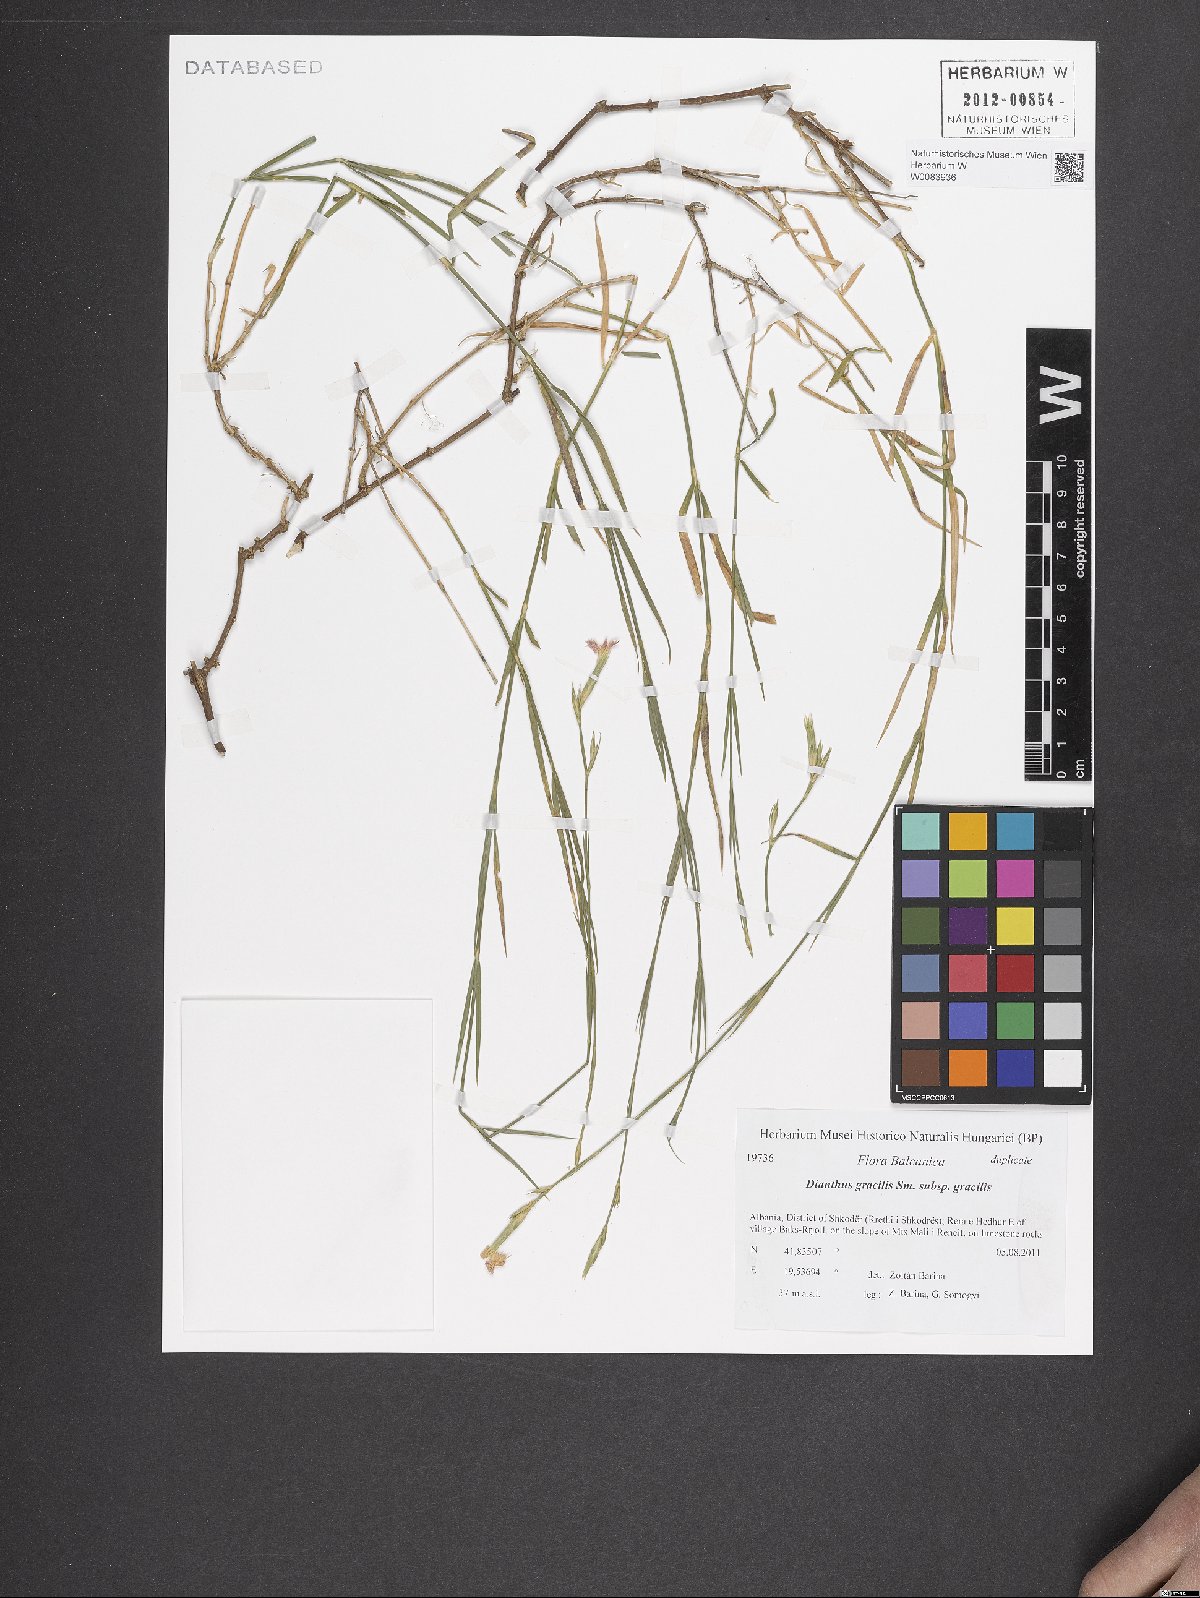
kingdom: Plantae
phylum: Tracheophyta
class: Magnoliopsida
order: Caryophyllales
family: Caryophyllaceae
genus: Dianthus
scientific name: Dianthus gracilis
